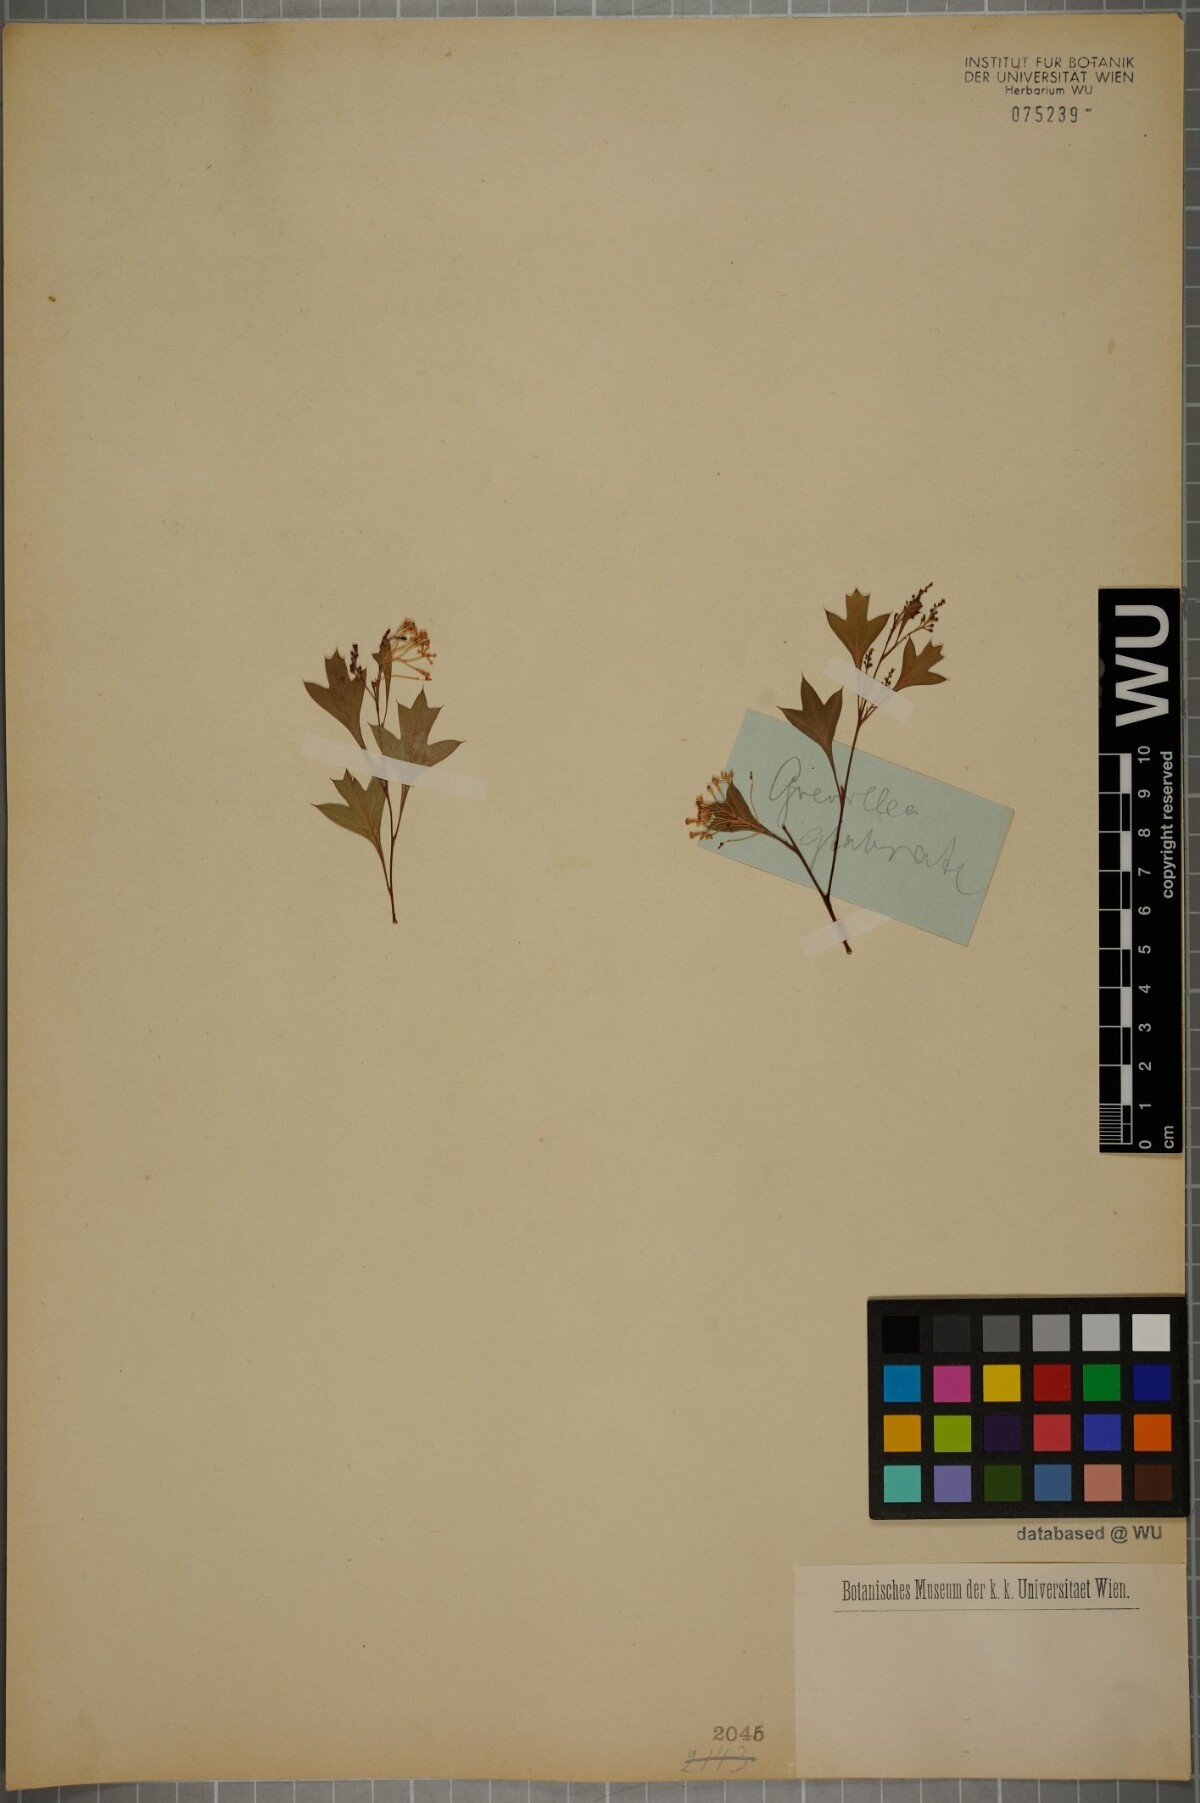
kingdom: Plantae
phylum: Tracheophyta
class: Magnoliopsida
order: Proteales
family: Proteaceae
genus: Grevillea
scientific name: Grevillea manglesii
